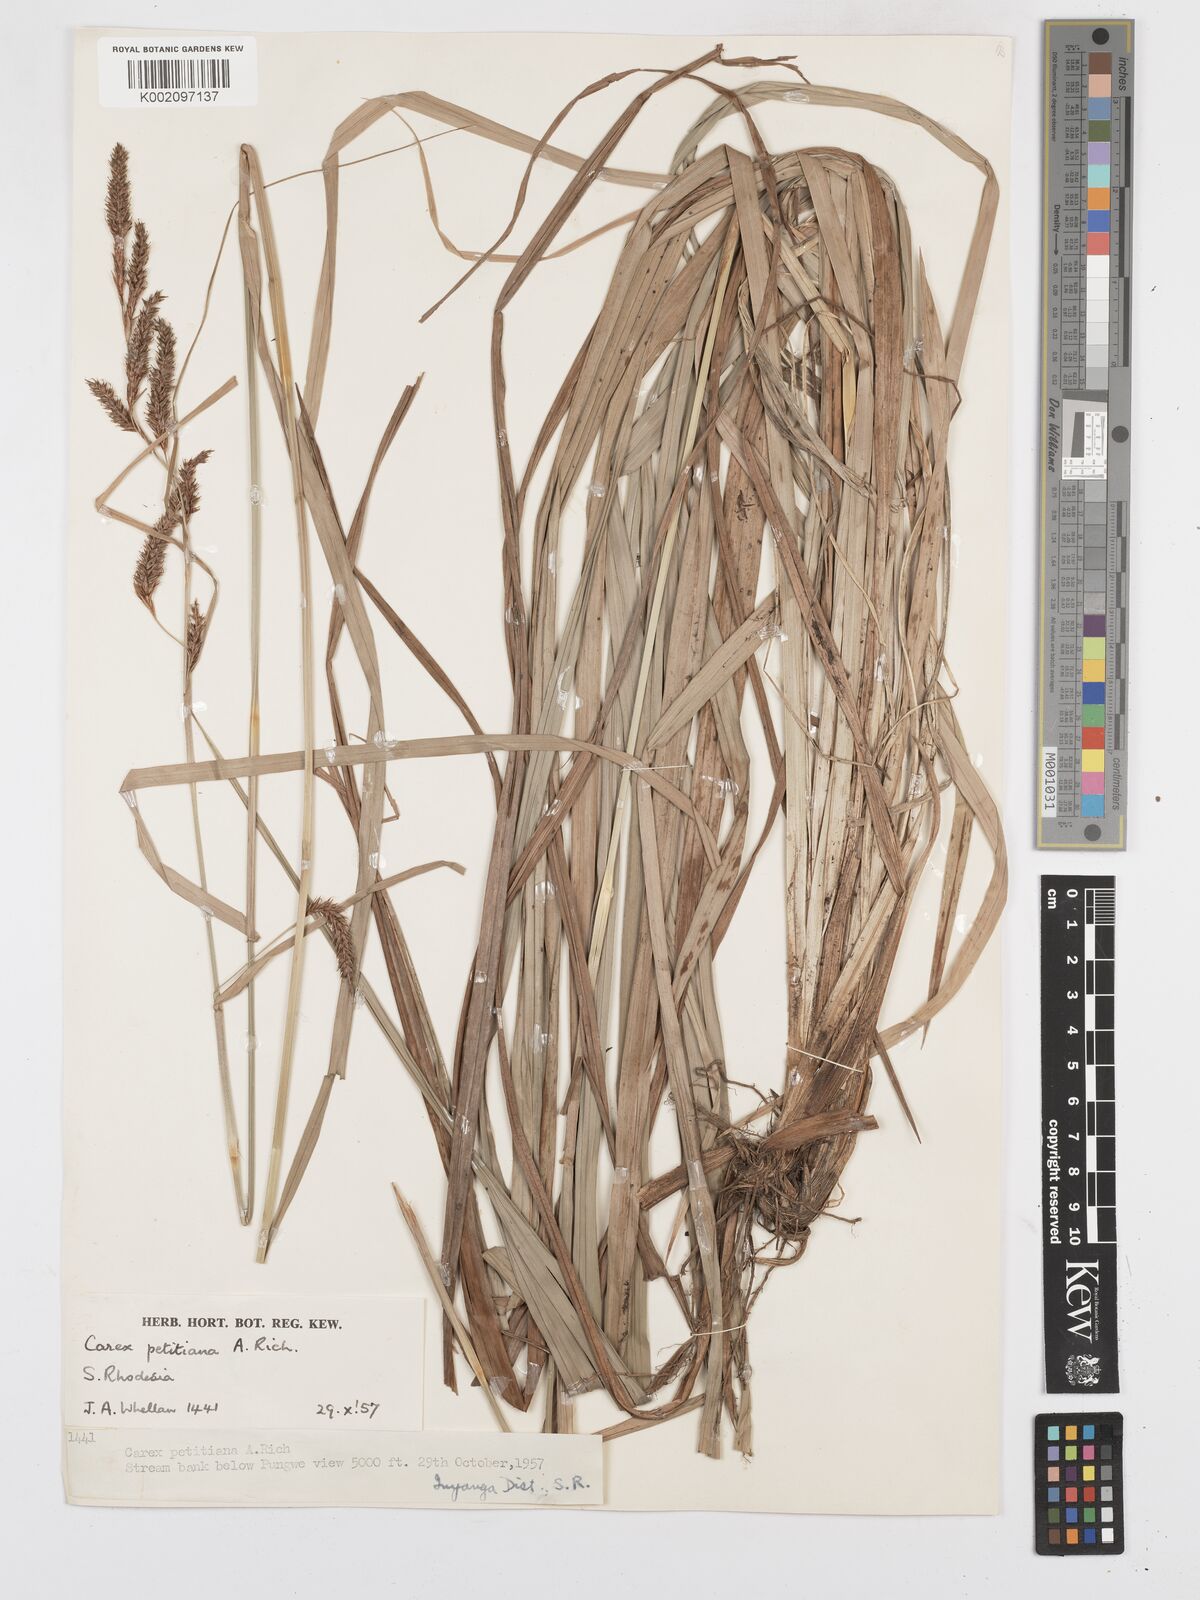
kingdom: Plantae
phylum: Tracheophyta
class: Liliopsida
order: Poales
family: Cyperaceae
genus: Carex
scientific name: Carex petitiana
